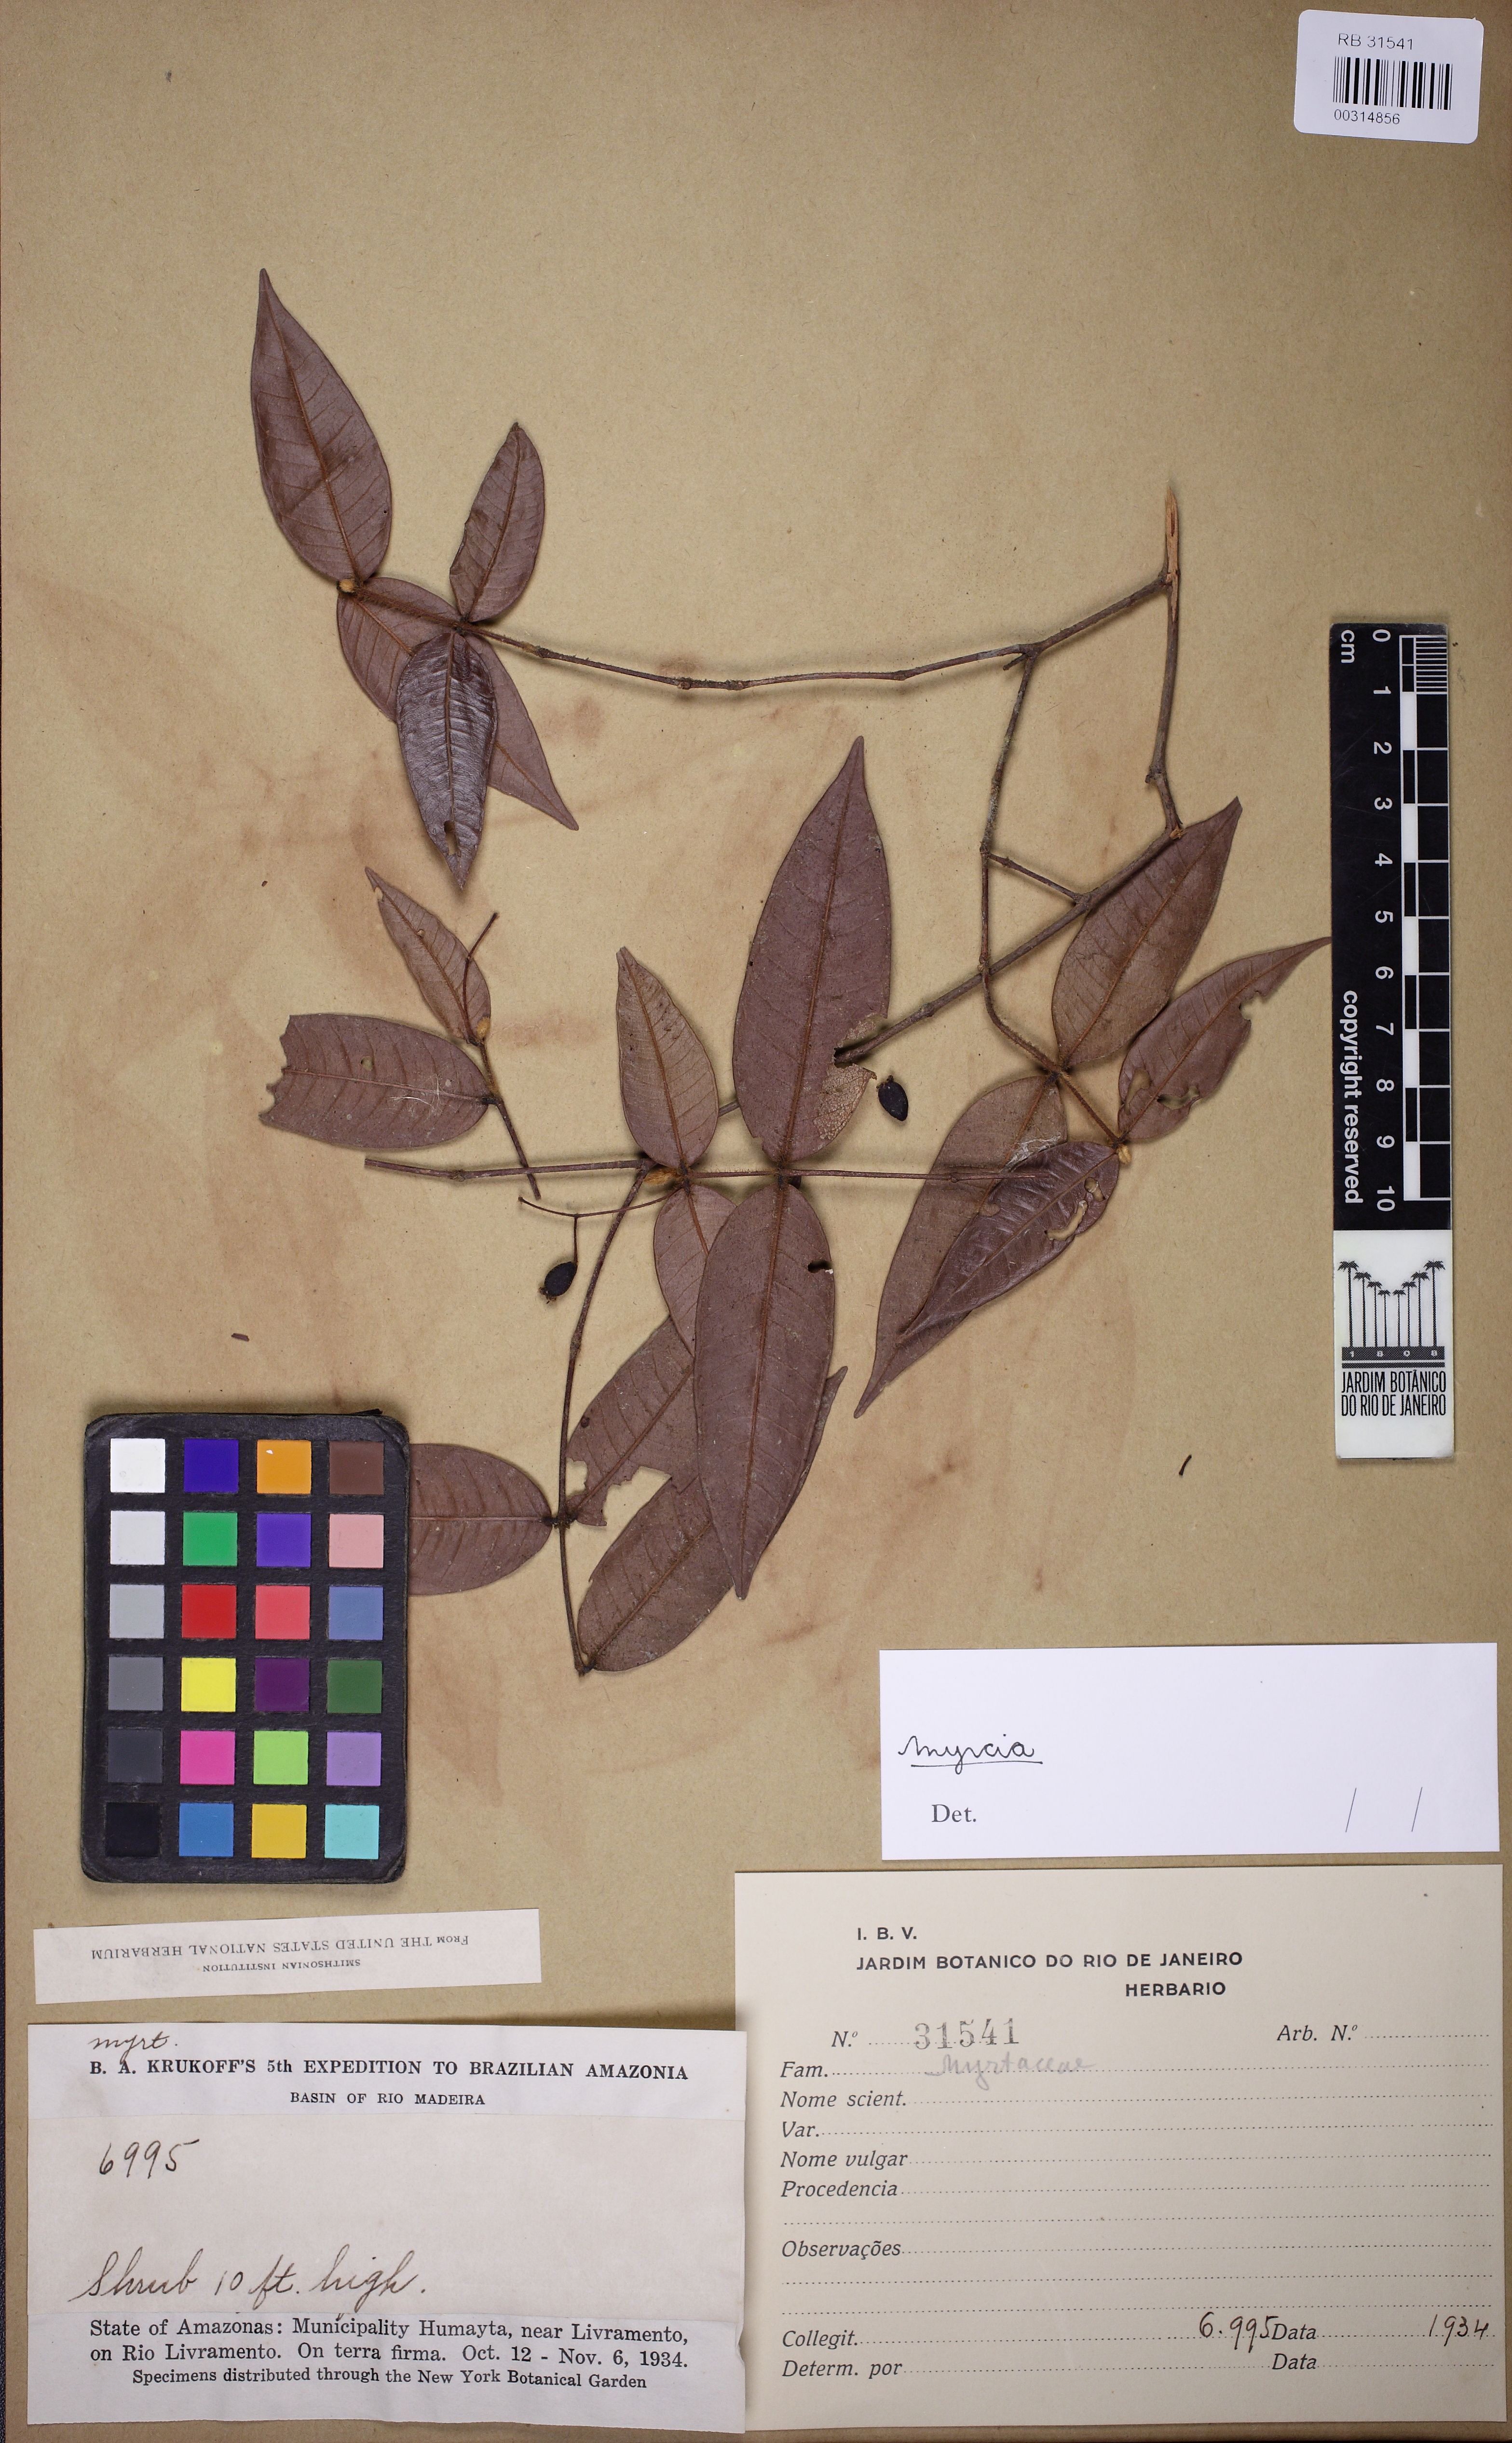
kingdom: Plantae
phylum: Tracheophyta
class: Magnoliopsida
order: Myrtales
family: Myrtaceae
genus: Myrcia
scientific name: Myrcia poeppigiana
